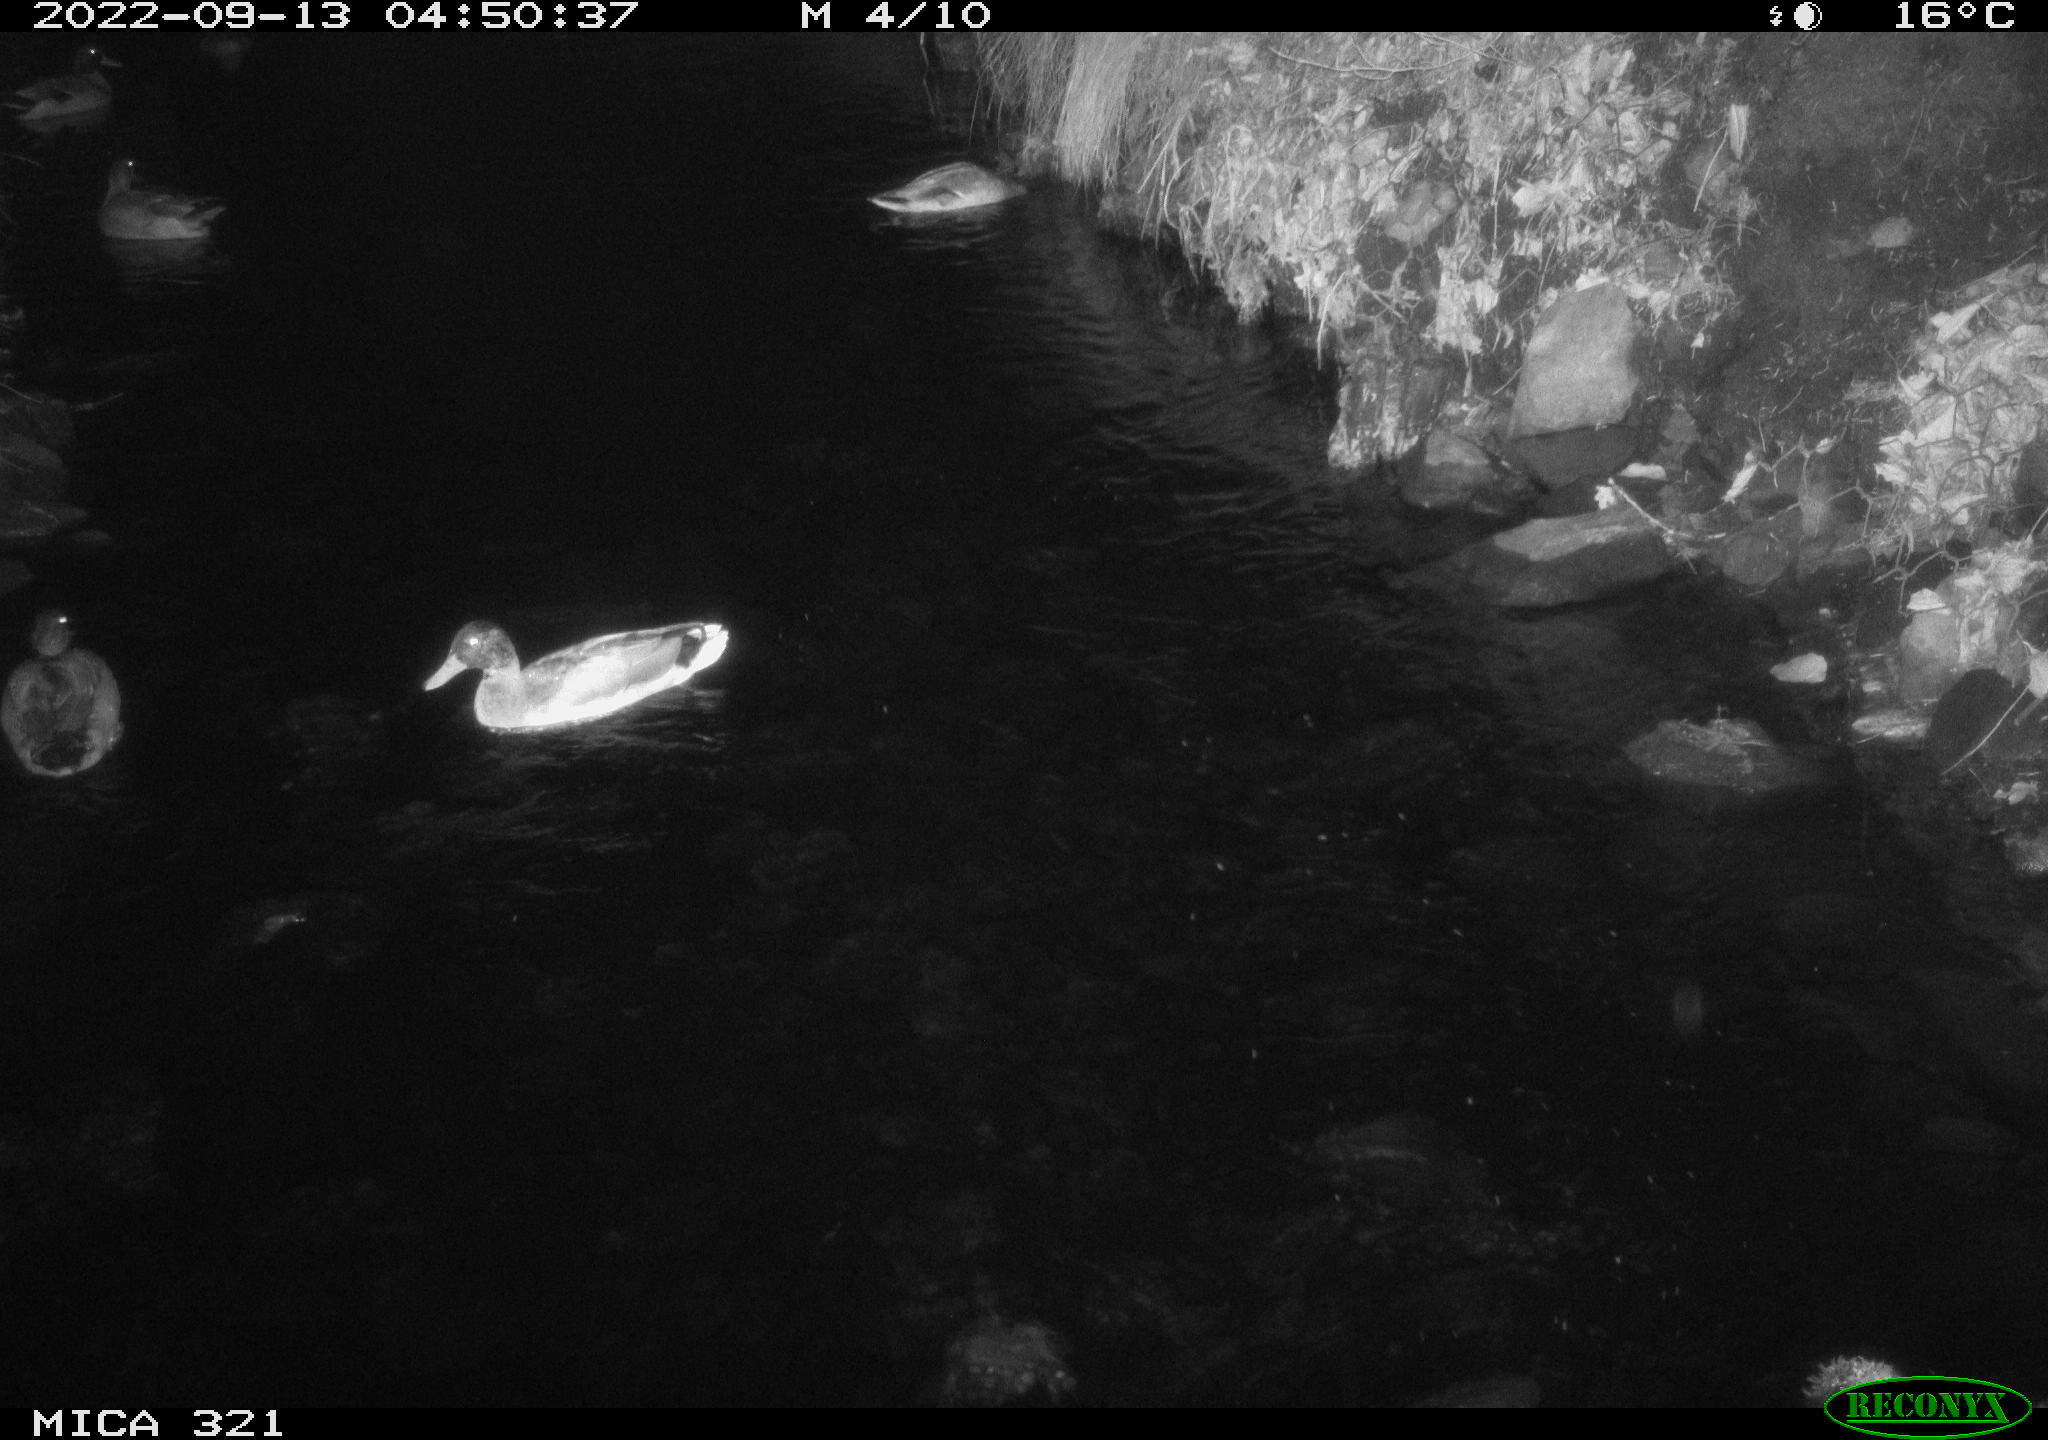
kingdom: Animalia
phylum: Chordata
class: Aves
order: Anseriformes
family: Anatidae
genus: Anas
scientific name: Anas
